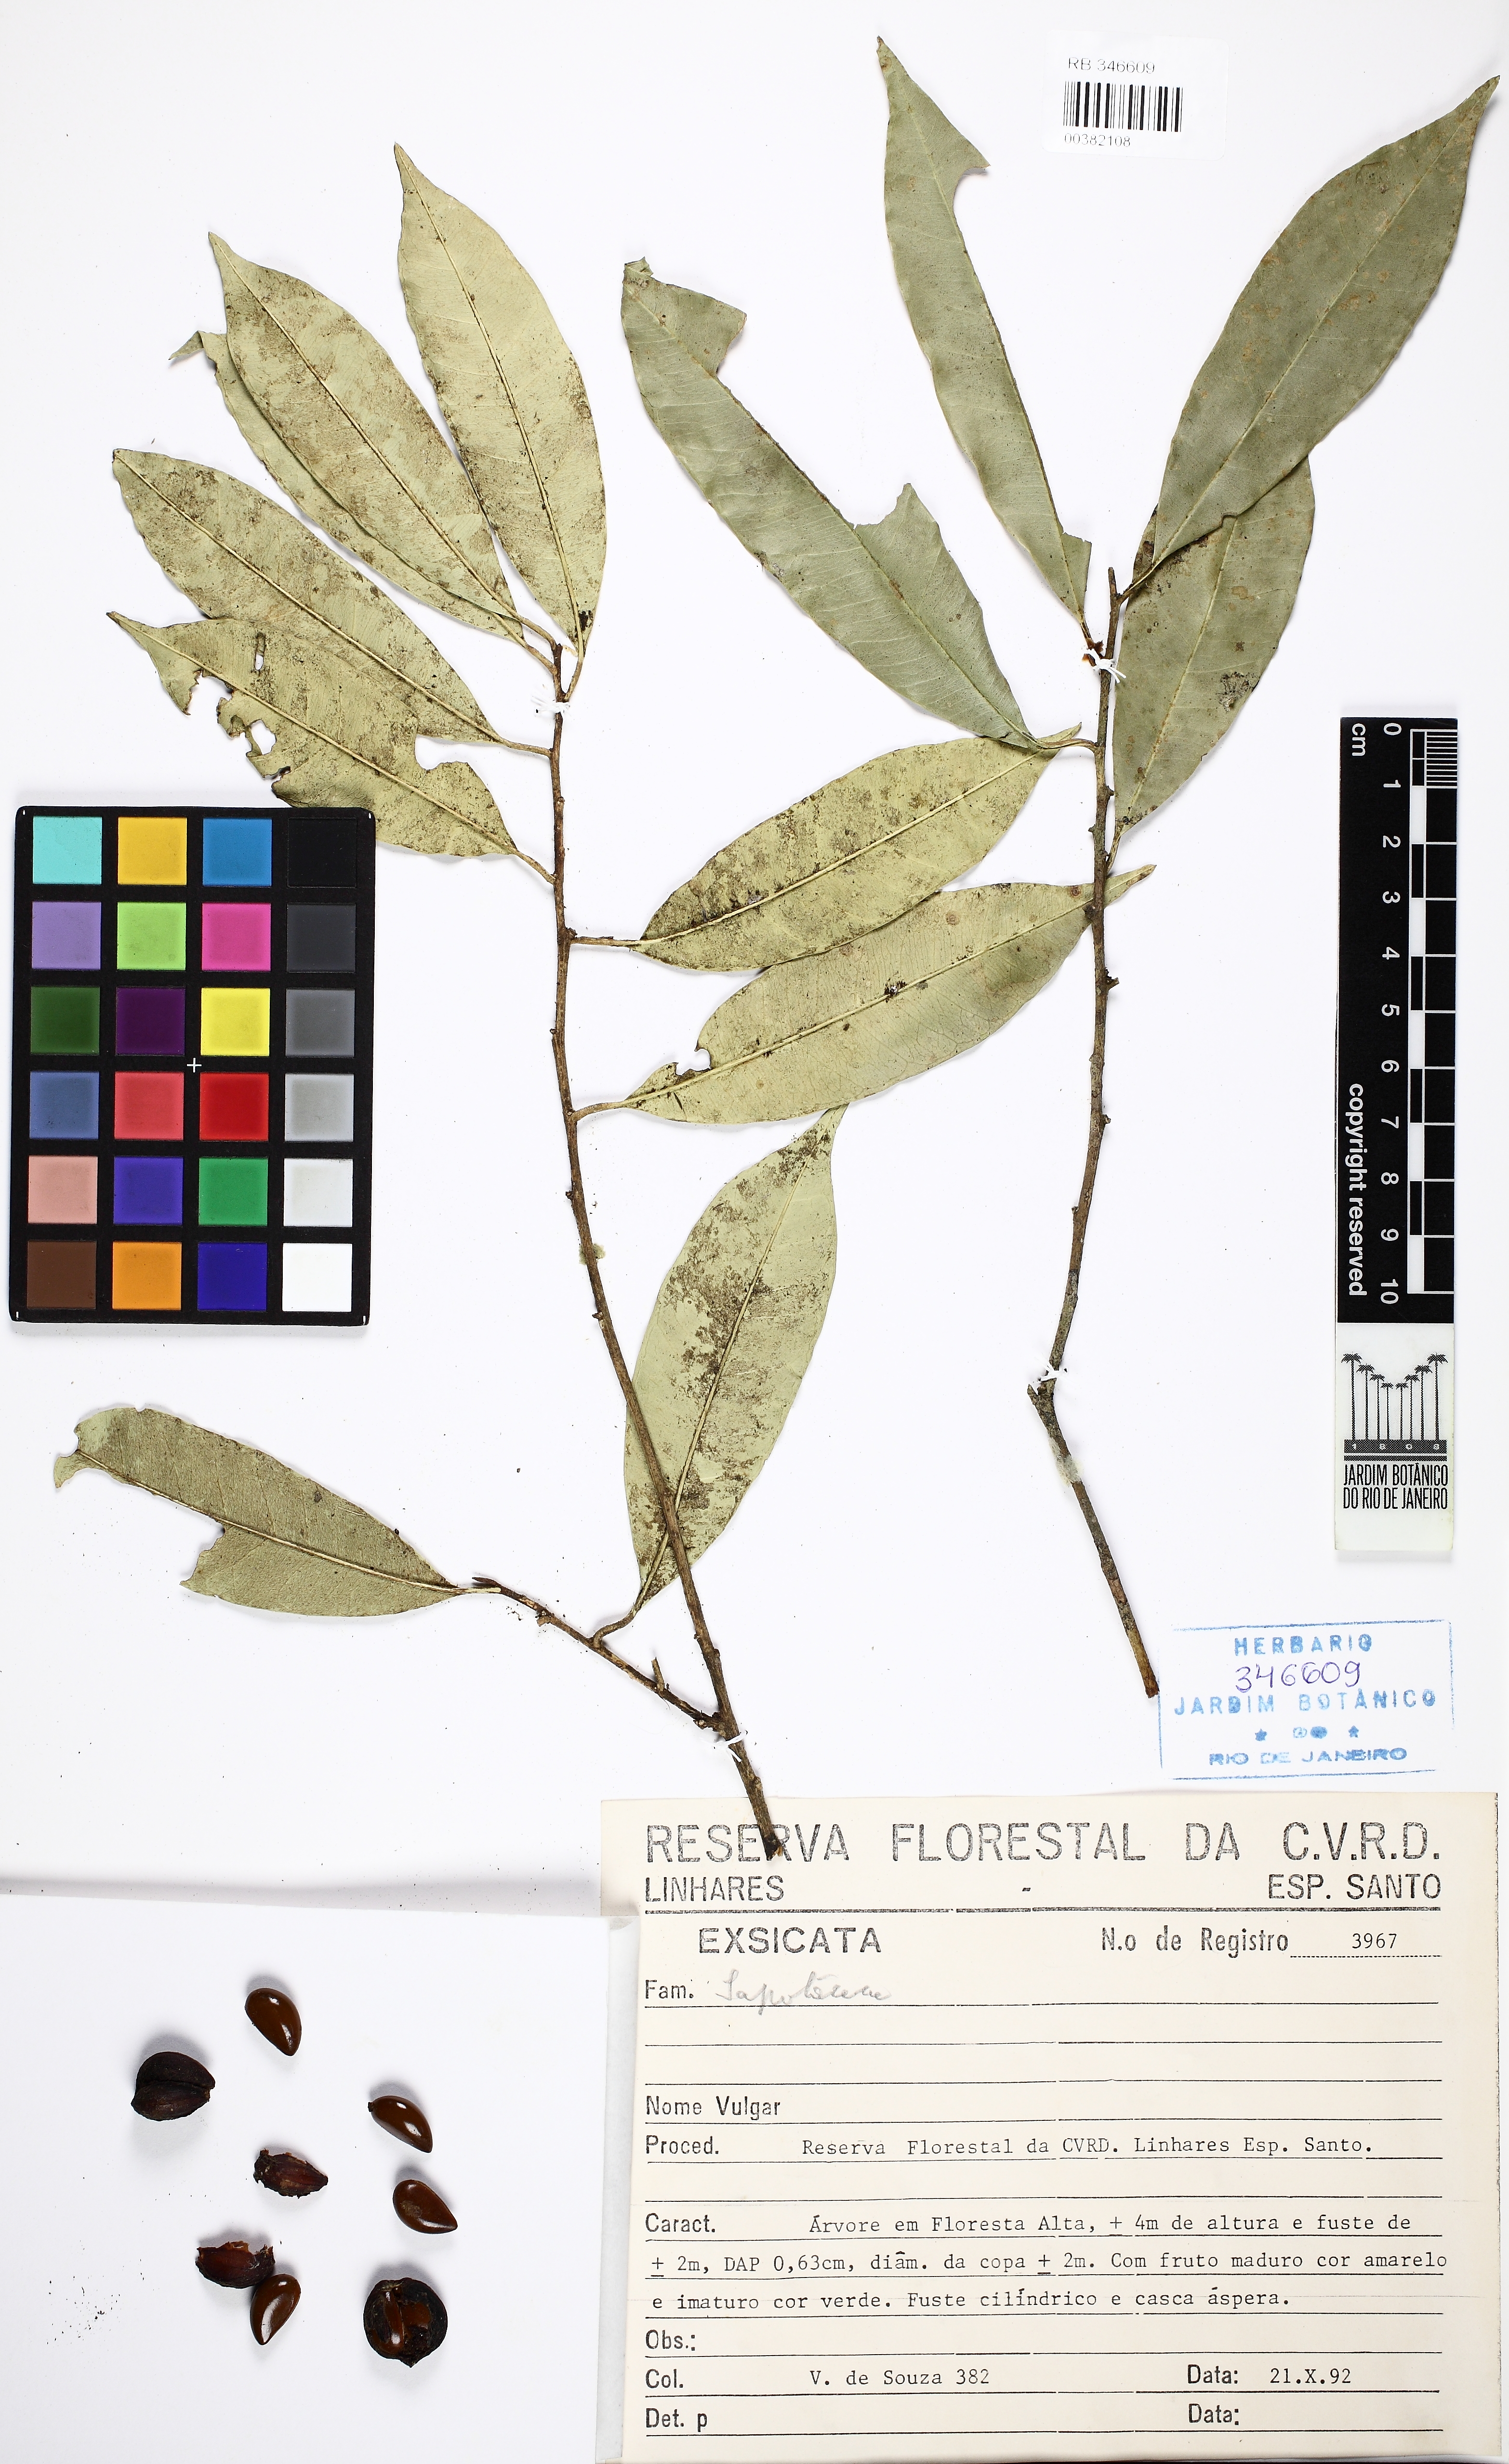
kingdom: Plantae
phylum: Tracheophyta
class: Magnoliopsida
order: Ericales
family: Sapotaceae
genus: Chrysophyllum
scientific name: Chrysophyllum gonocarpum
